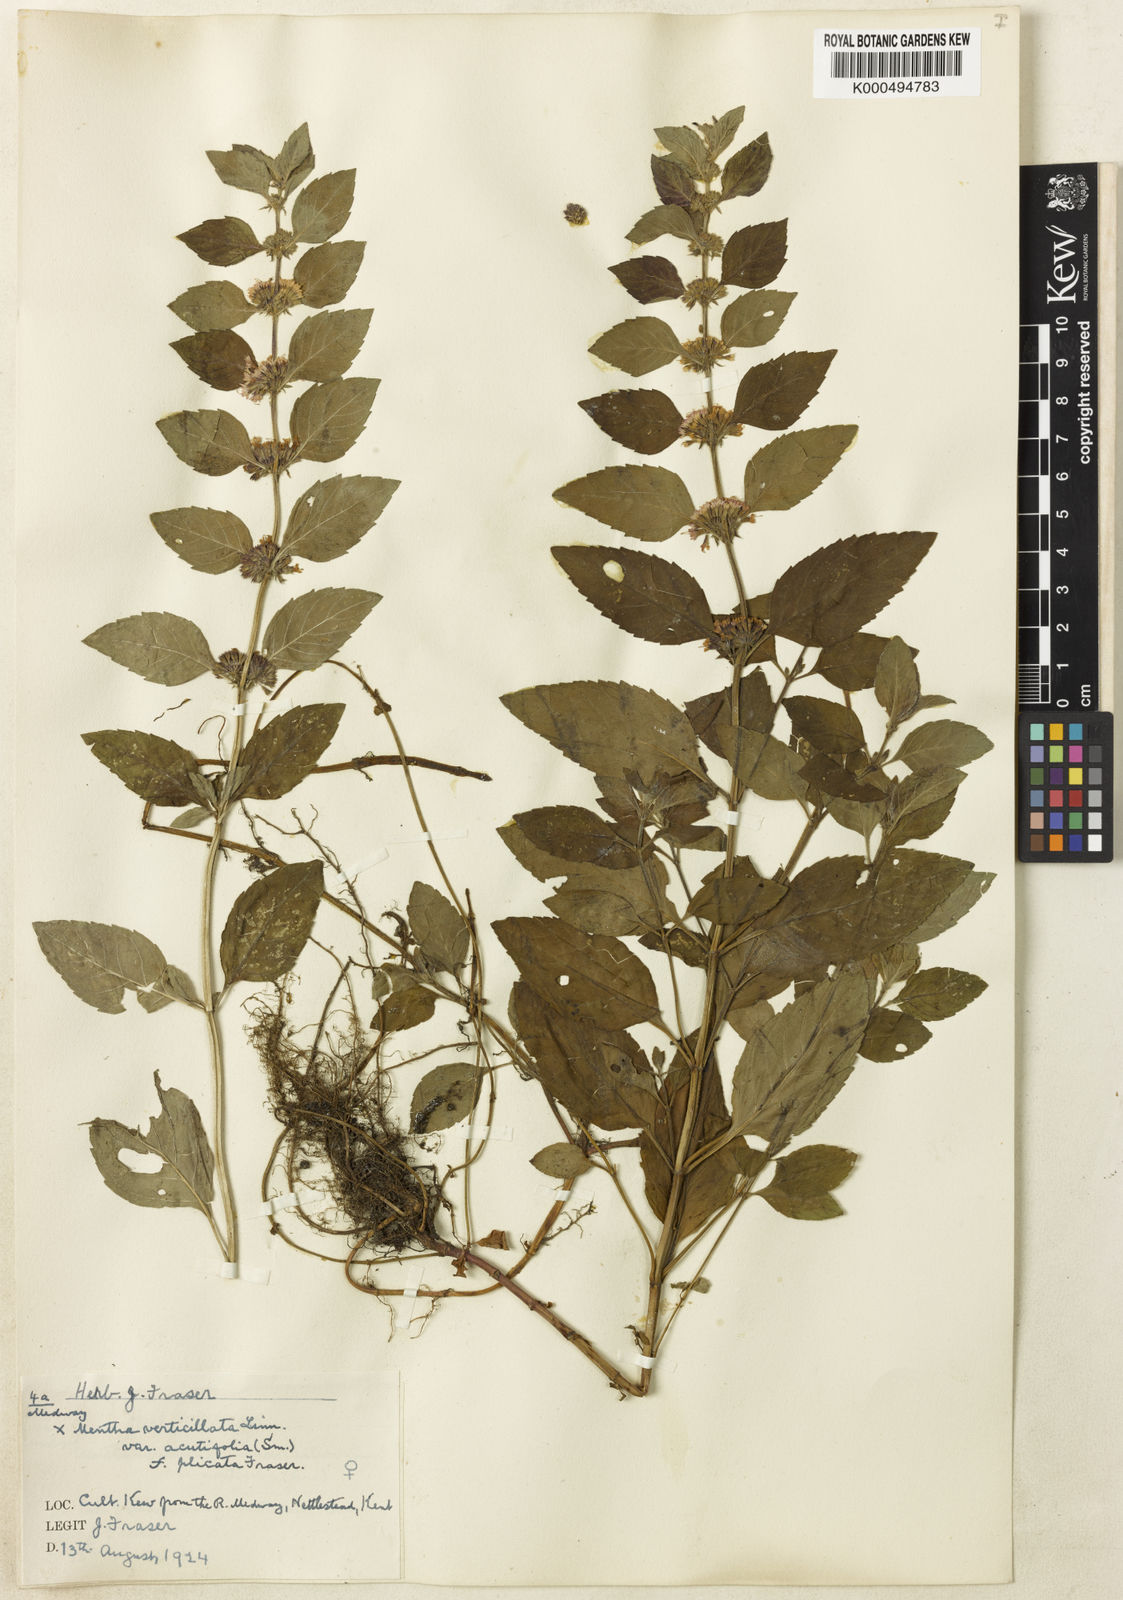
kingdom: Plantae
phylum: Tracheophyta
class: Magnoliopsida
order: Lamiales
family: Lamiaceae
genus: Mentha
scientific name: Mentha verticillata
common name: Mint
